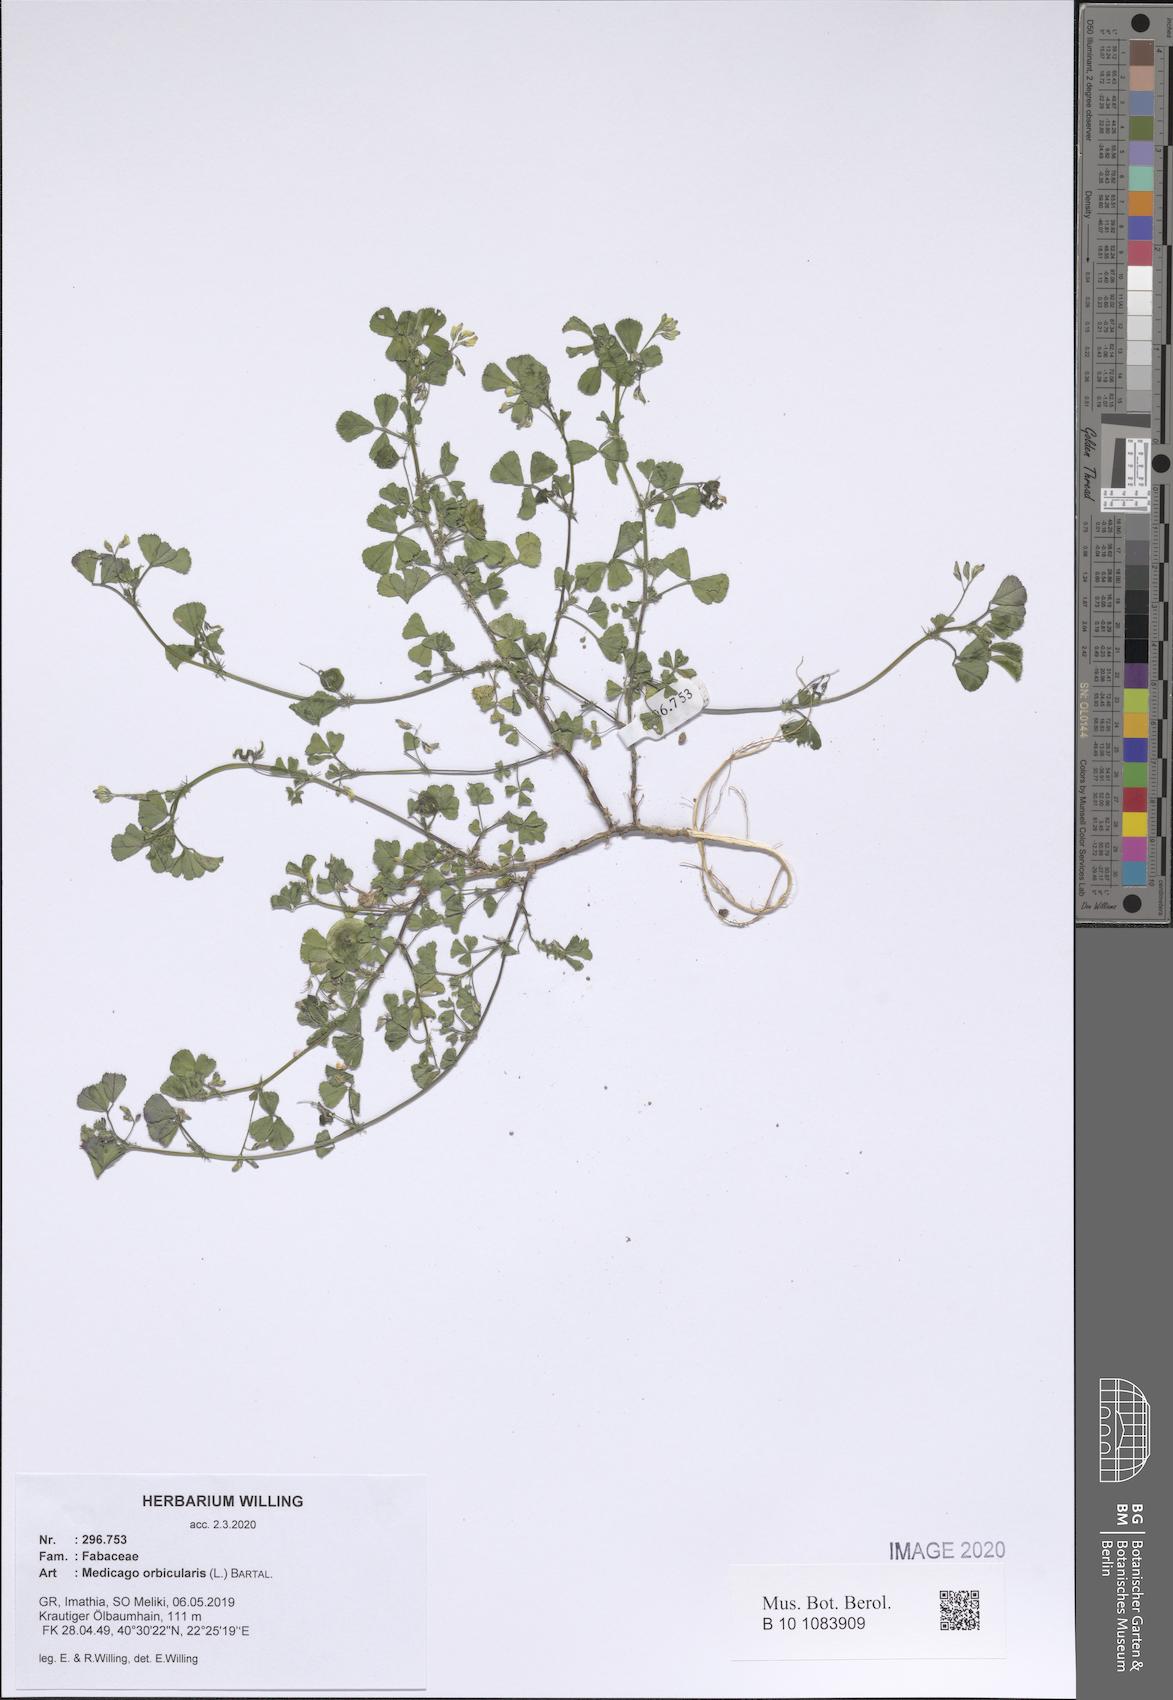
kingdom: Plantae
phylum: Tracheophyta
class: Magnoliopsida
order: Fabales
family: Fabaceae
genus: Medicago
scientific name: Medicago orbicularis
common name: Button medick
